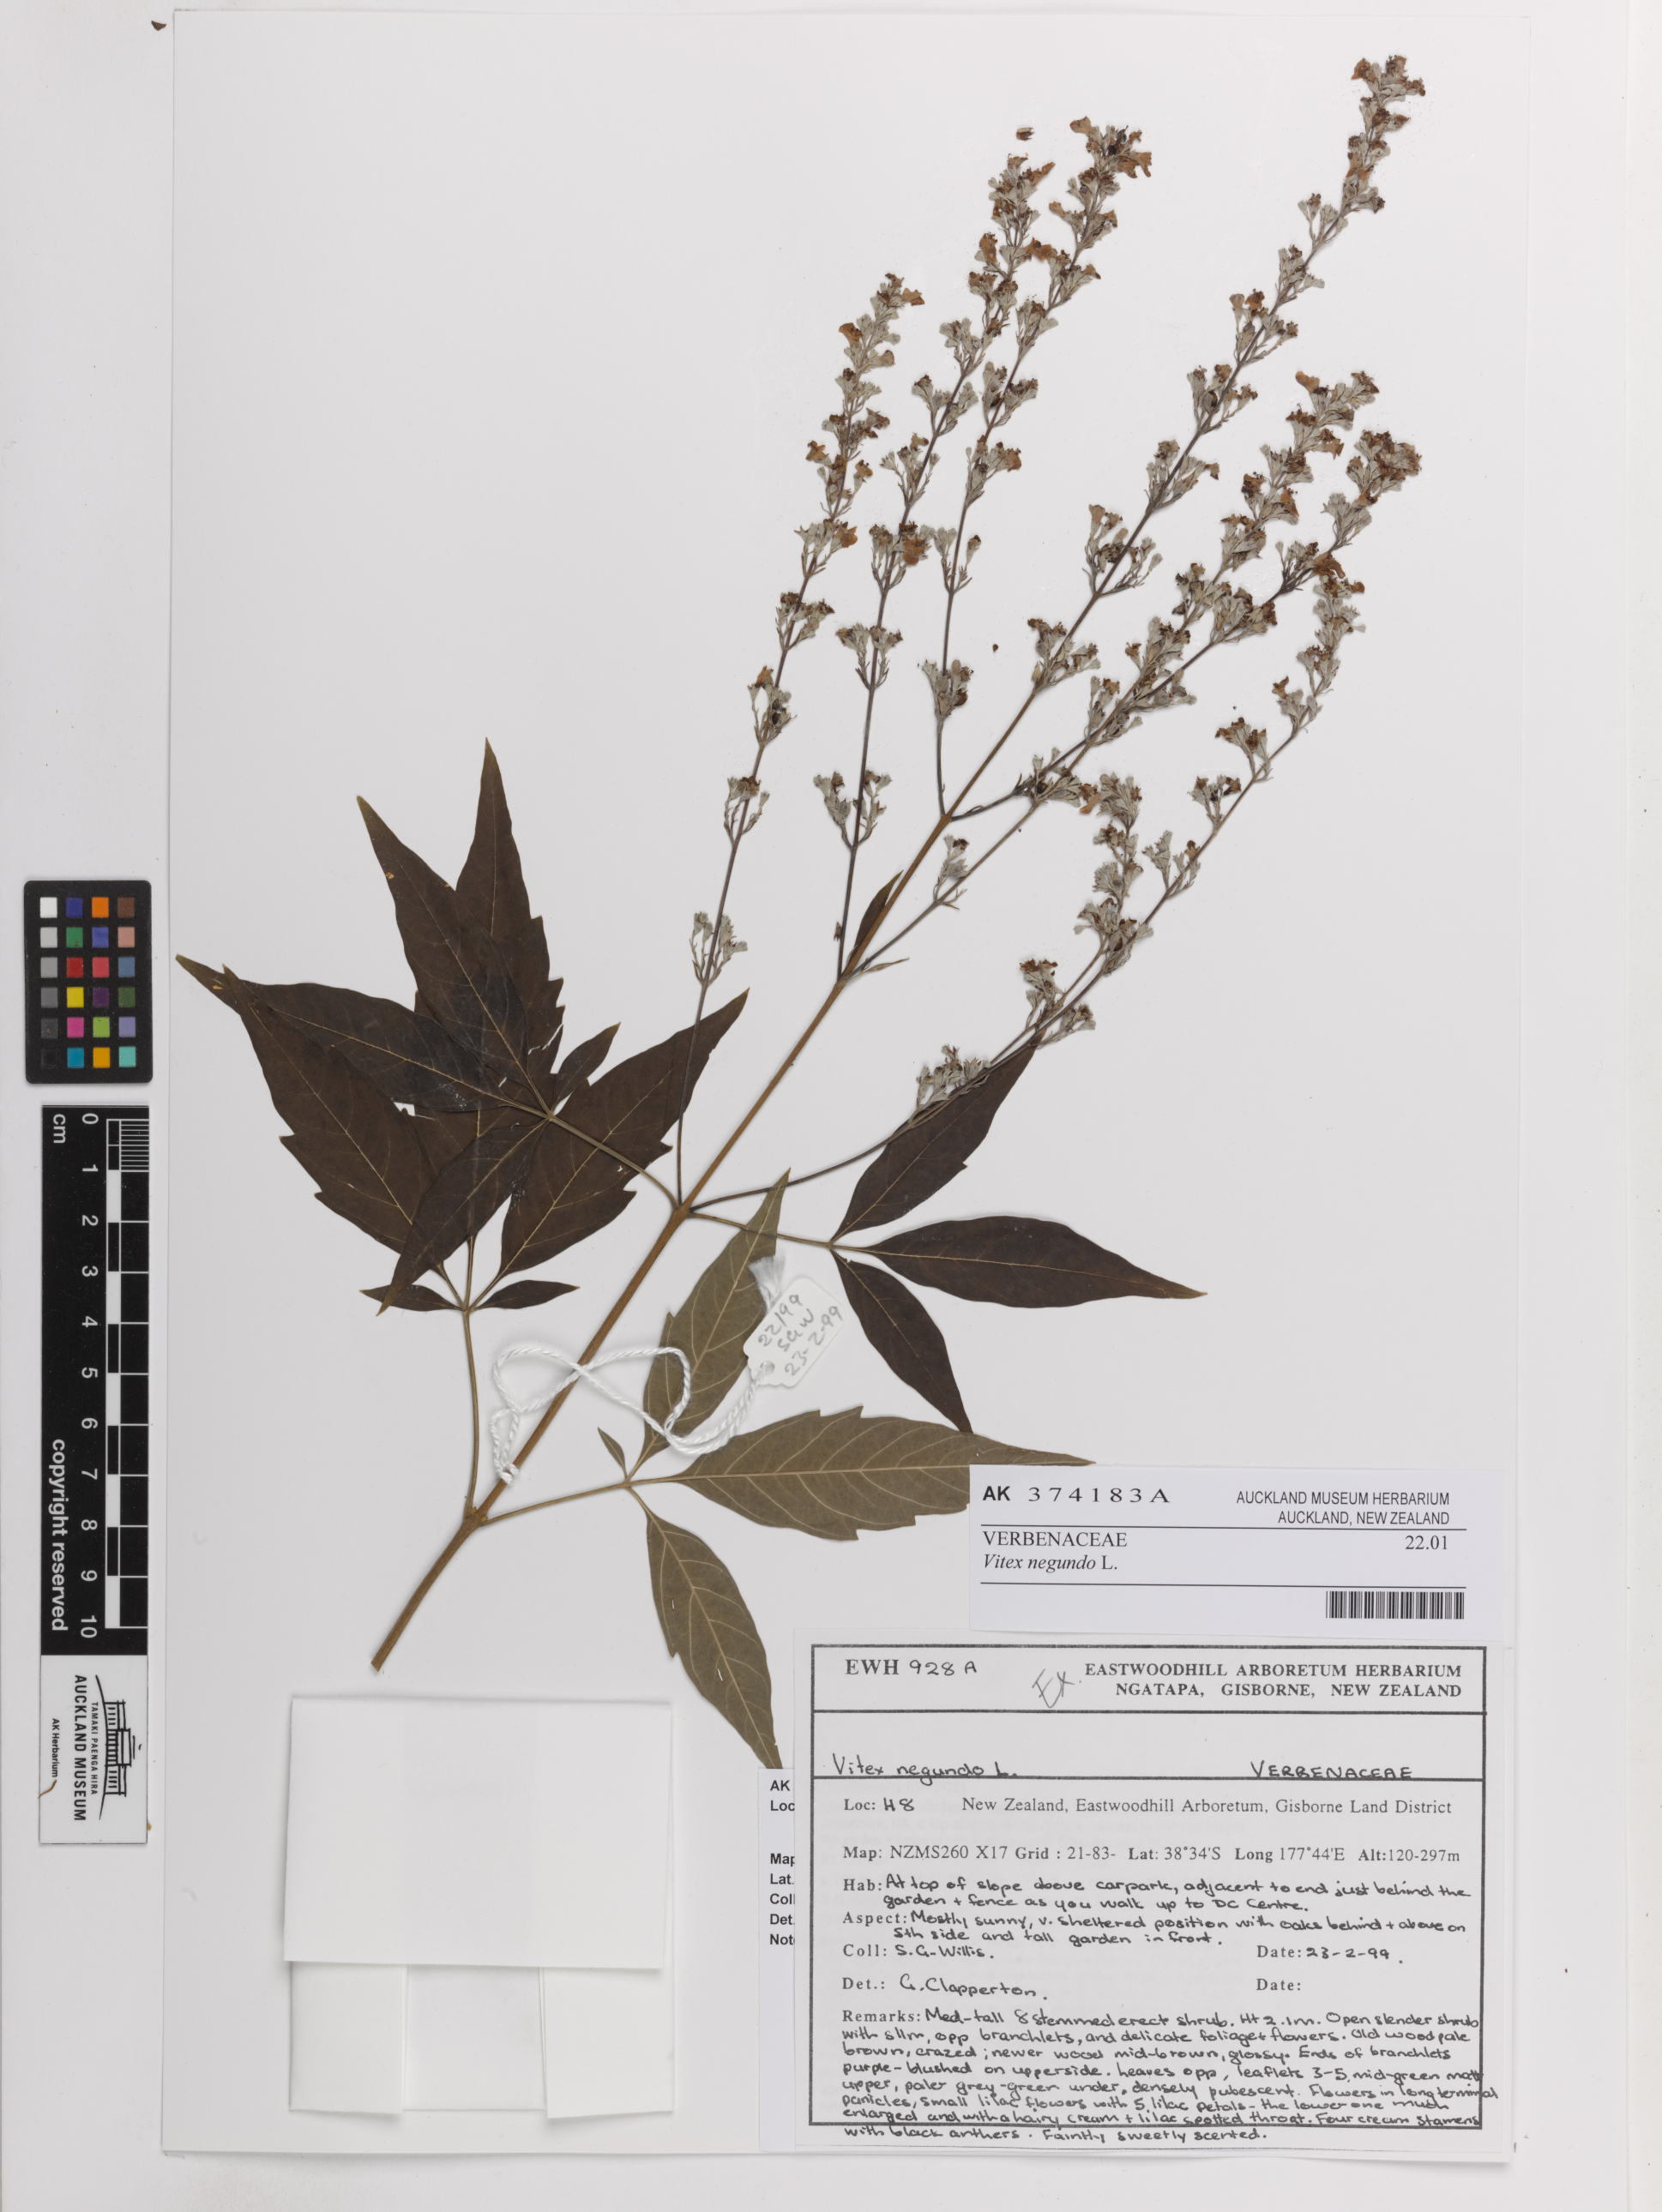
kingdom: Plantae
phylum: Tracheophyta
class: Magnoliopsida
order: Lamiales
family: Lamiaceae
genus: Vitex
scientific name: Vitex negundo
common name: Chinese chastetree
